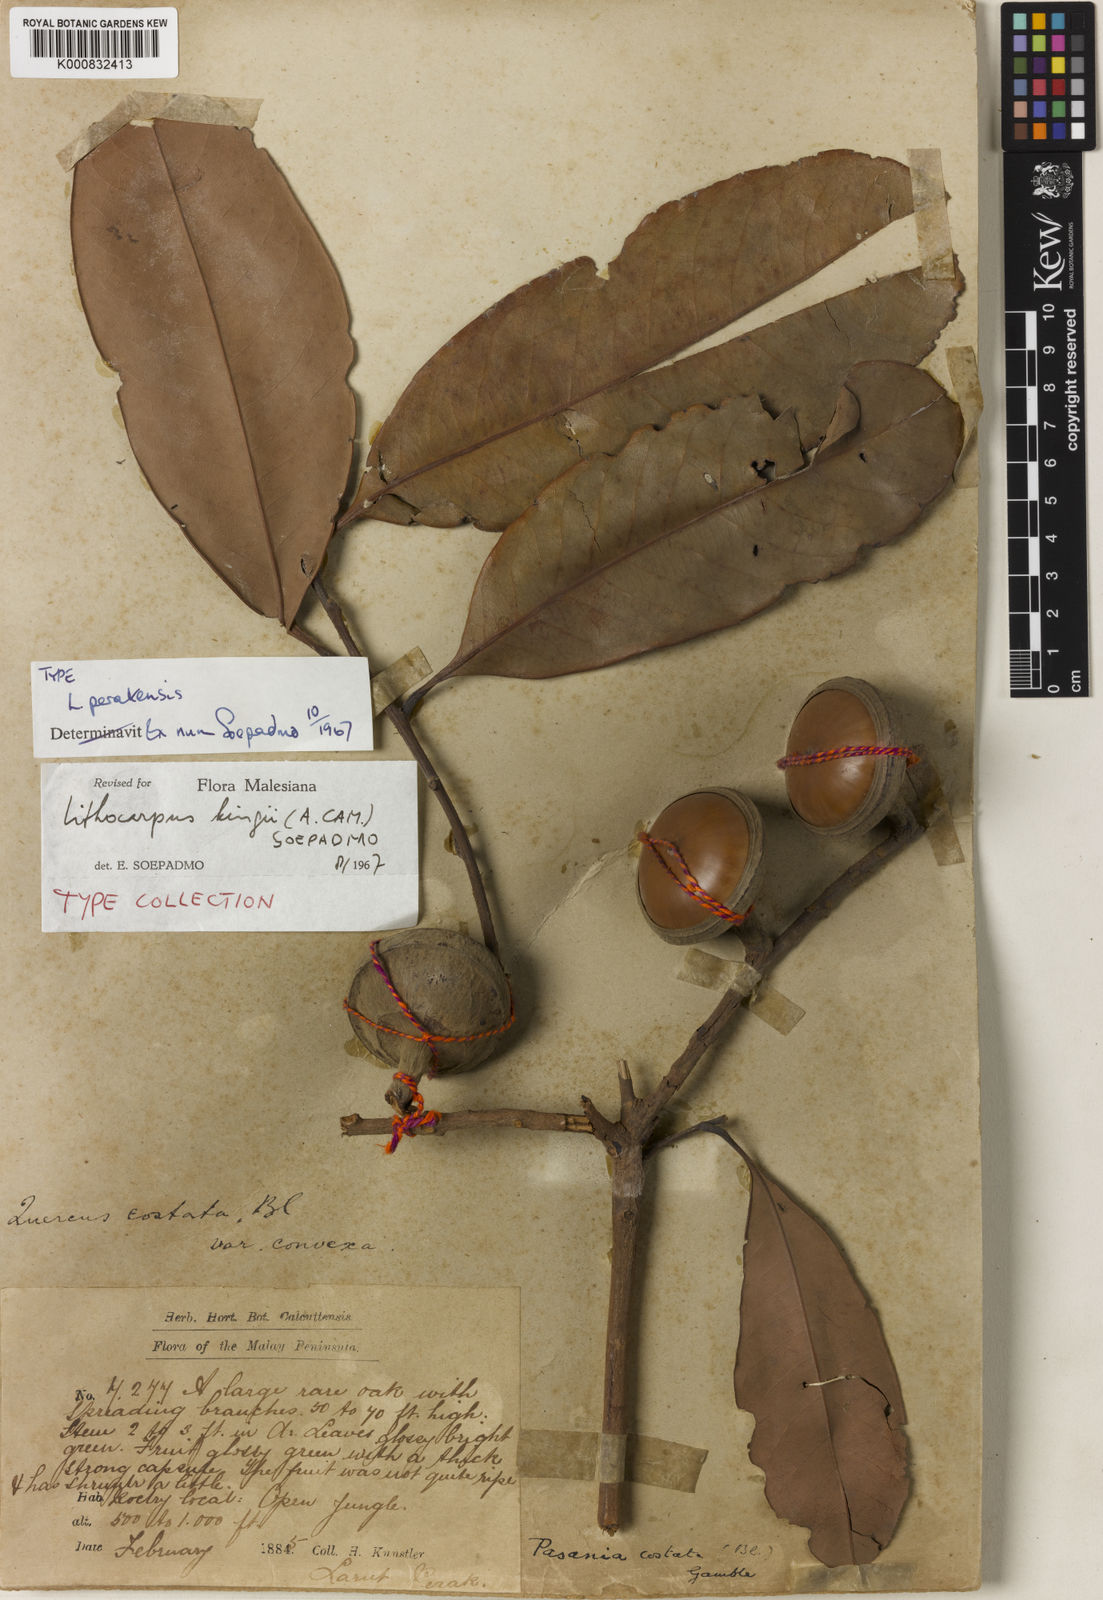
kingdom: Plantae
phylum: Tracheophyta
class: Magnoliopsida
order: Fagales
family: Fagaceae
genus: Lithocarpus
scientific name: Lithocarpus perakensis
